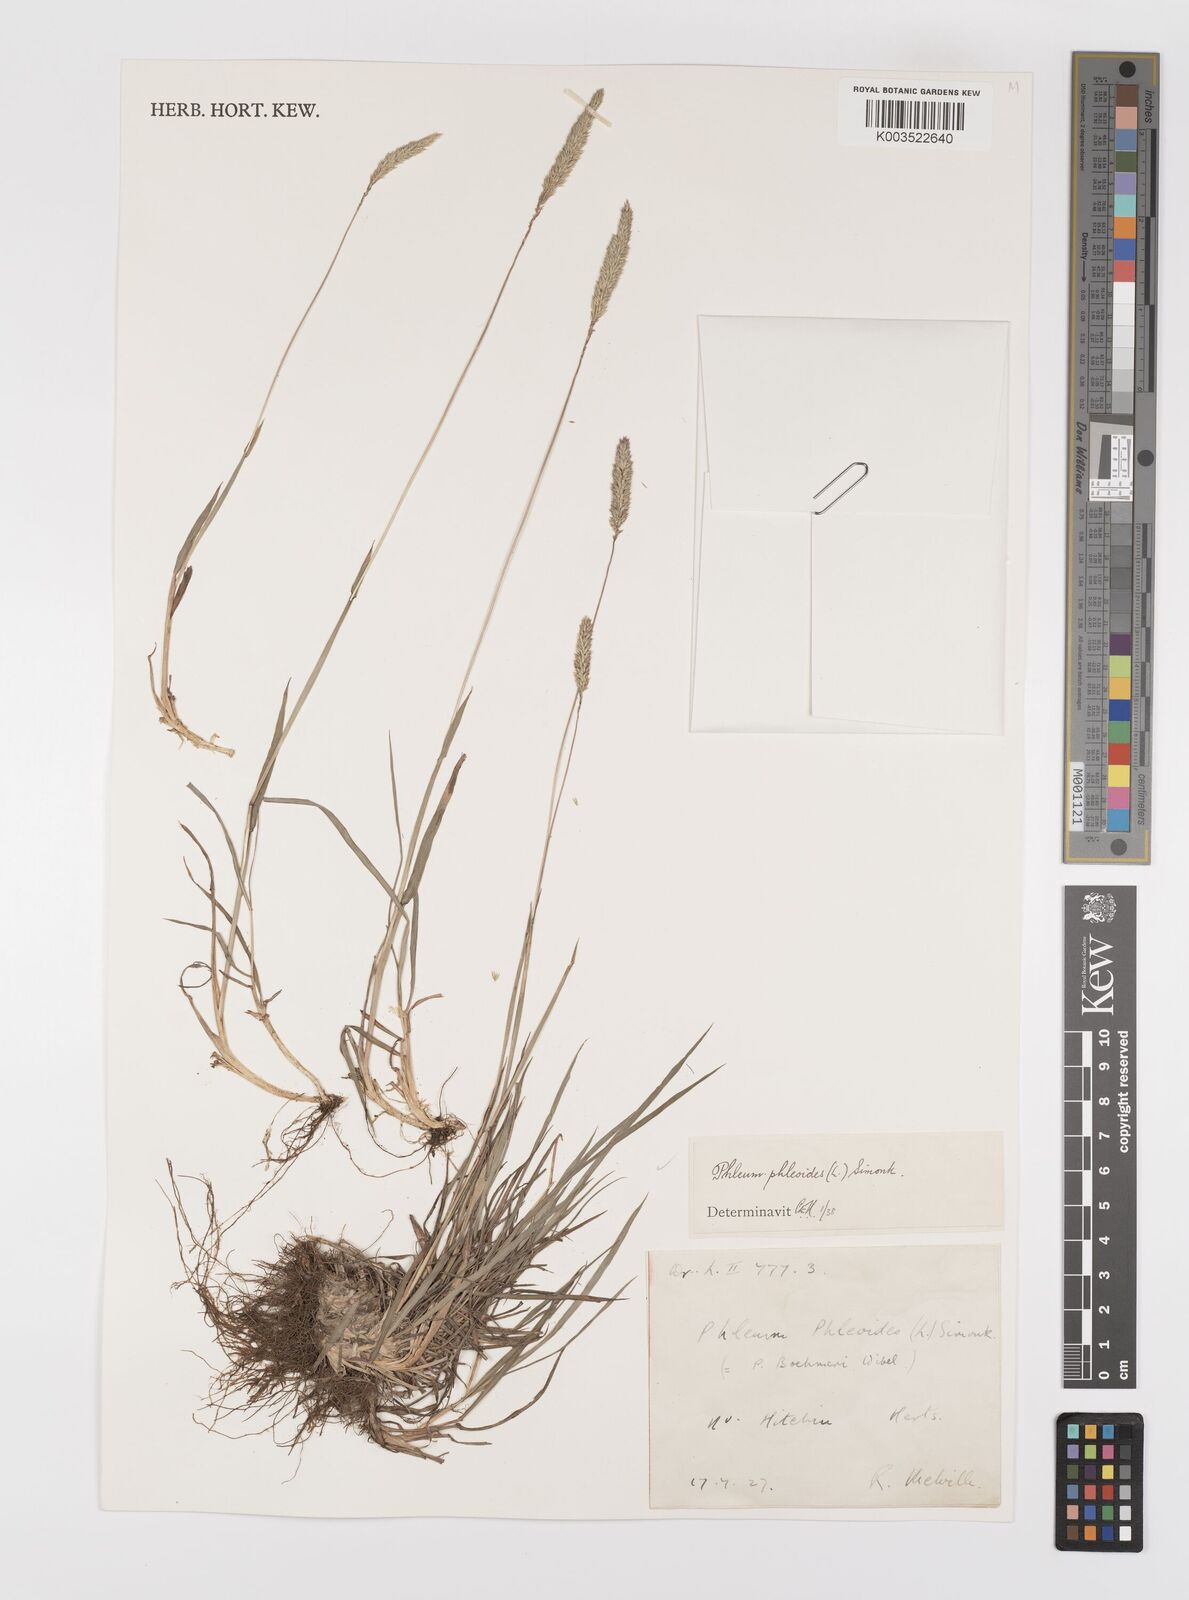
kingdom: Plantae
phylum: Tracheophyta
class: Liliopsida
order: Poales
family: Poaceae
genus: Phleum
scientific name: Phleum phleoides
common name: Purple-stem cat's-tail
